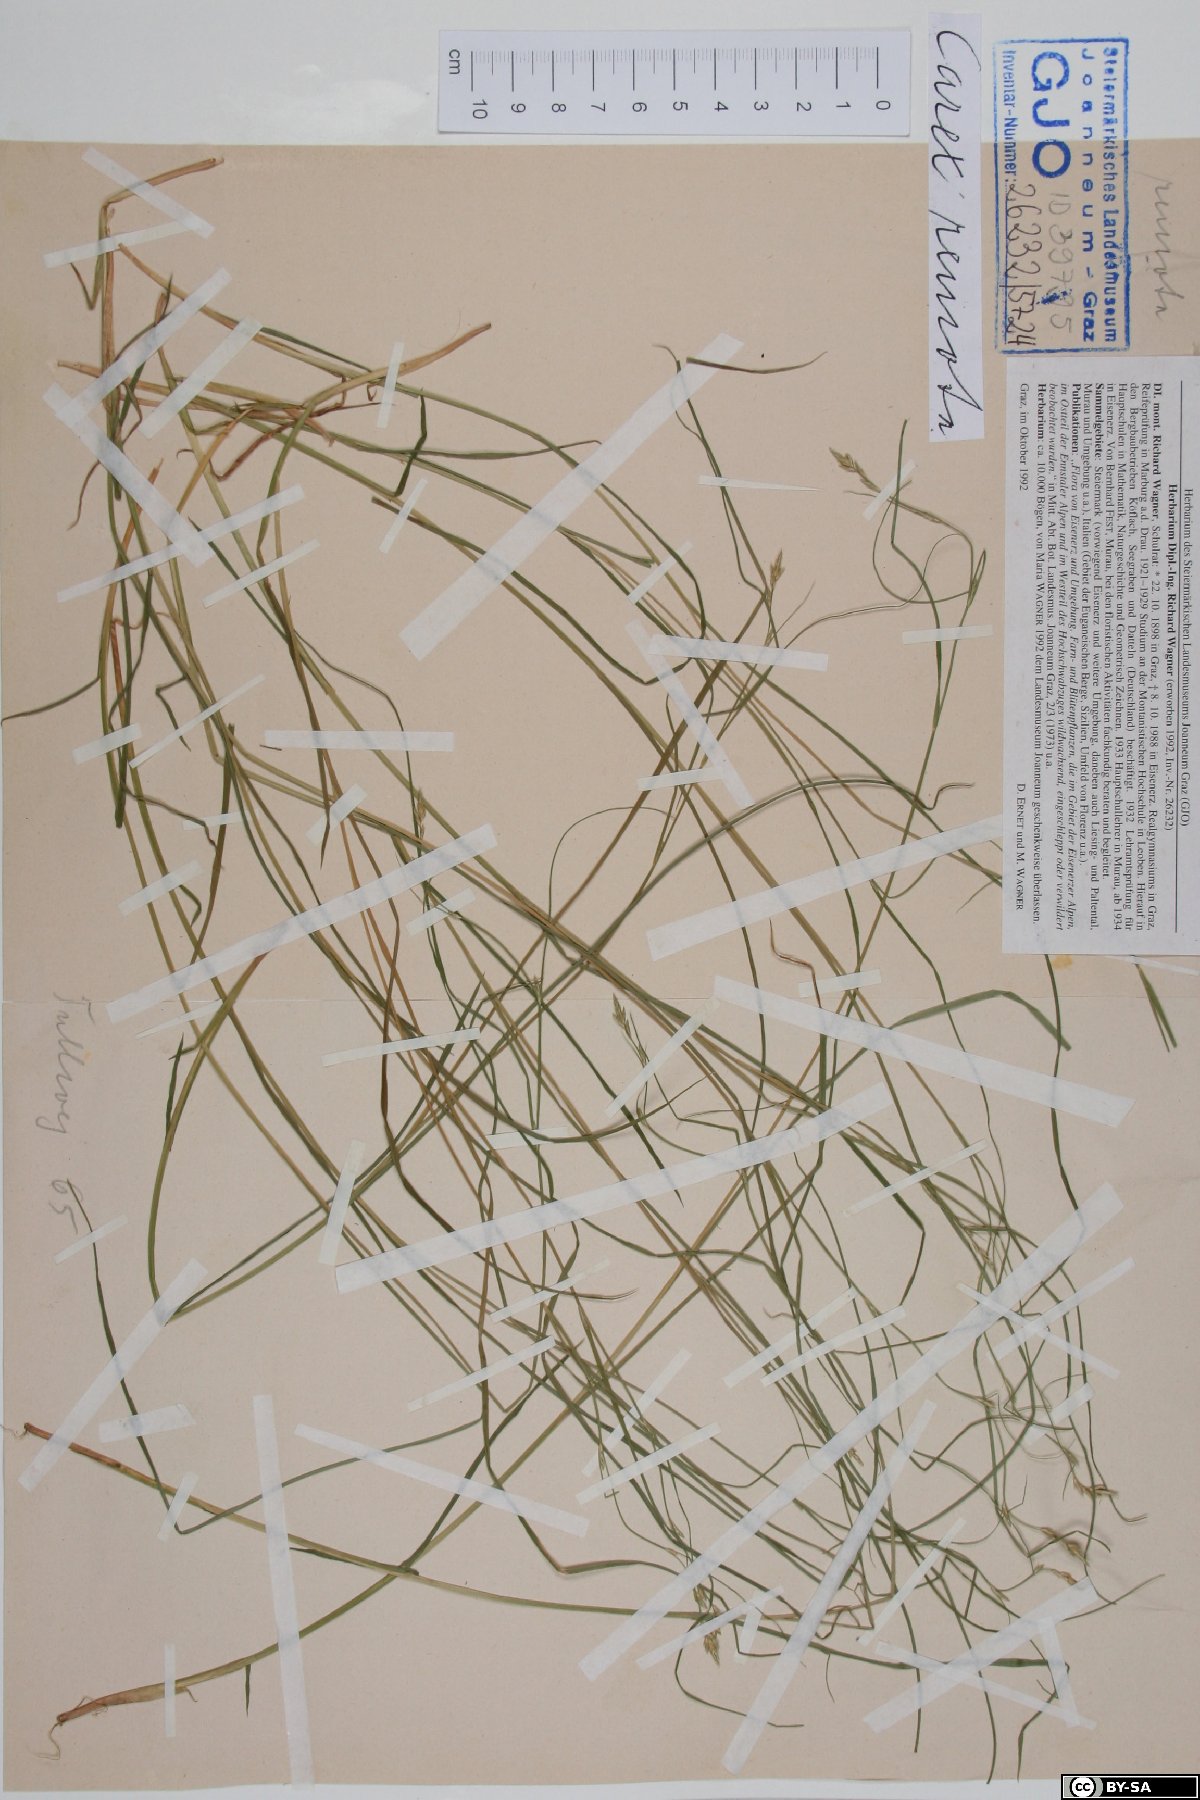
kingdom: Plantae
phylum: Tracheophyta
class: Liliopsida
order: Poales
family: Cyperaceae
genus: Carex
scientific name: Carex remota
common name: Remote sedge
